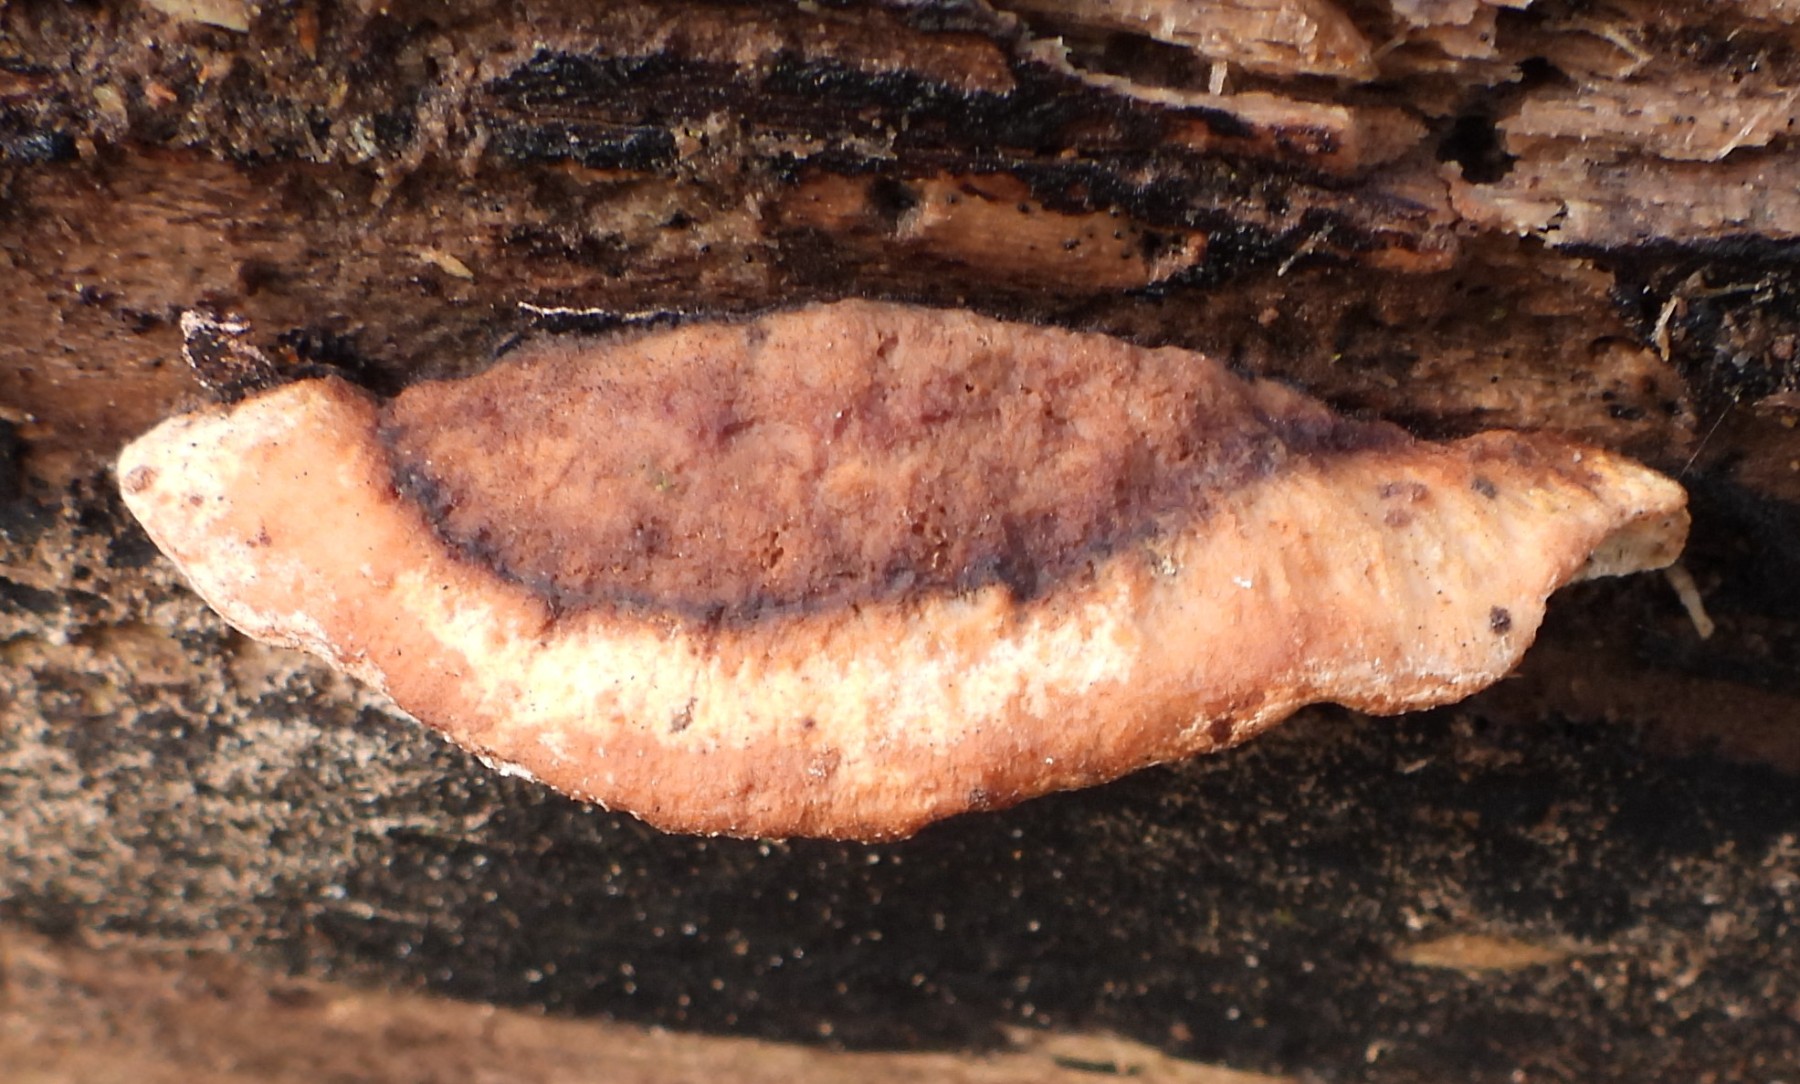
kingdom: Fungi
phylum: Basidiomycota
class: Agaricomycetes
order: Polyporales
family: Incrustoporiaceae
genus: Skeletocutis
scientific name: Skeletocutis nemoralis
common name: stor krystalporesvamp
